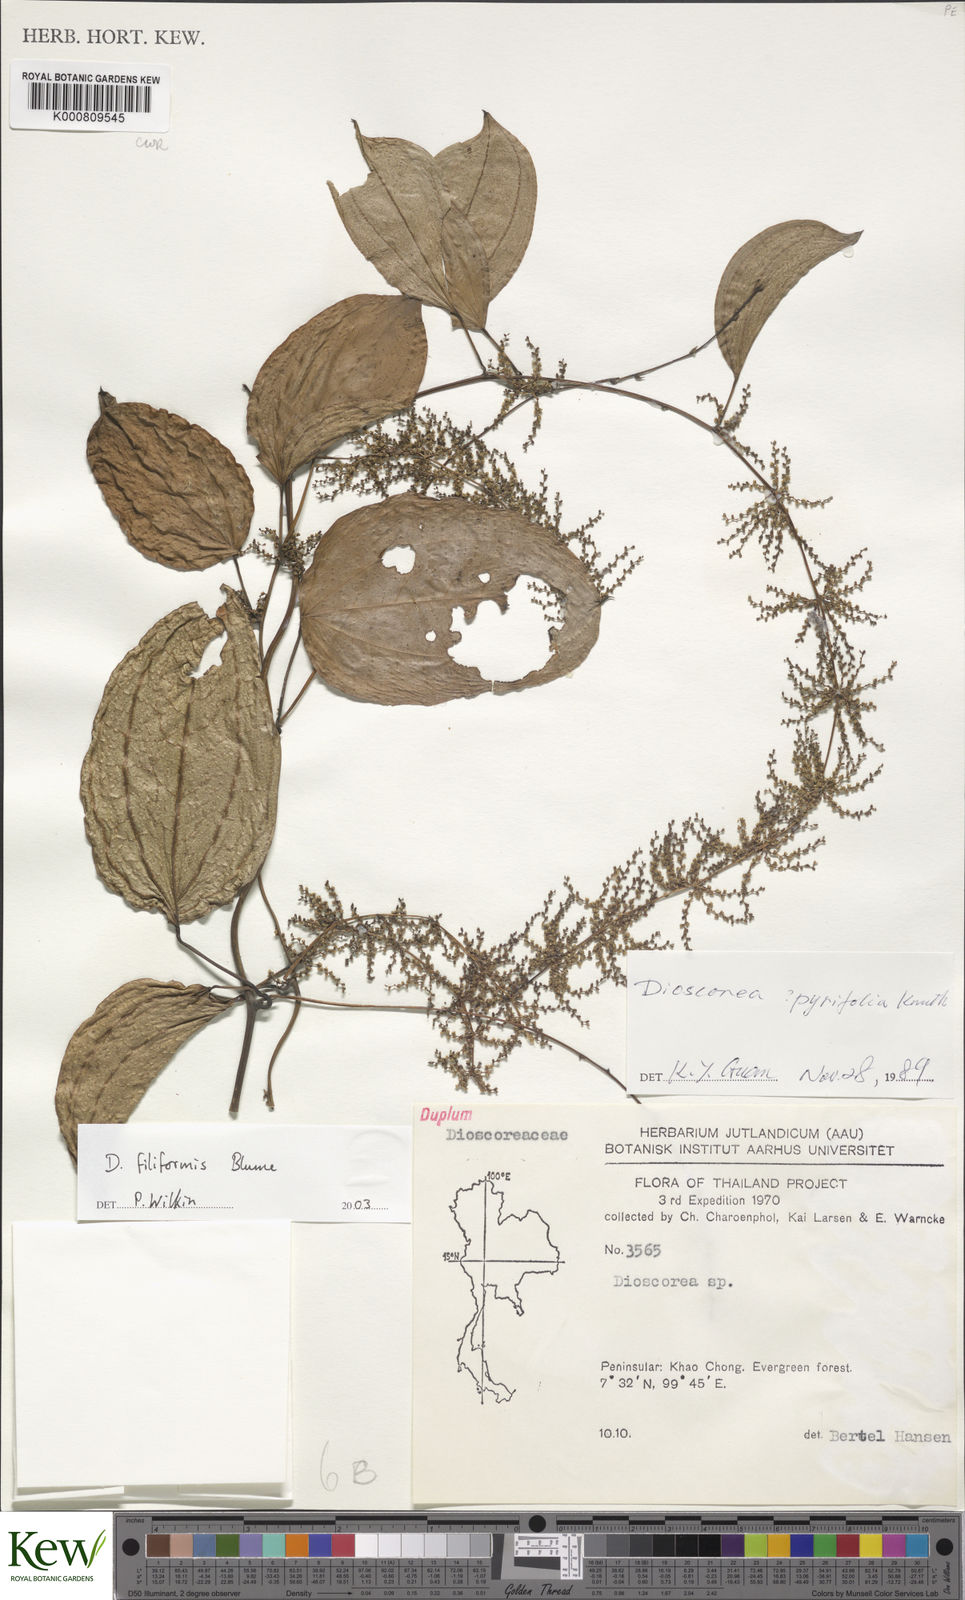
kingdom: Plantae
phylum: Tracheophyta
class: Liliopsida
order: Dioscoreales
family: Dioscoreaceae
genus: Dioscorea
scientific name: Dioscorea filiformis
